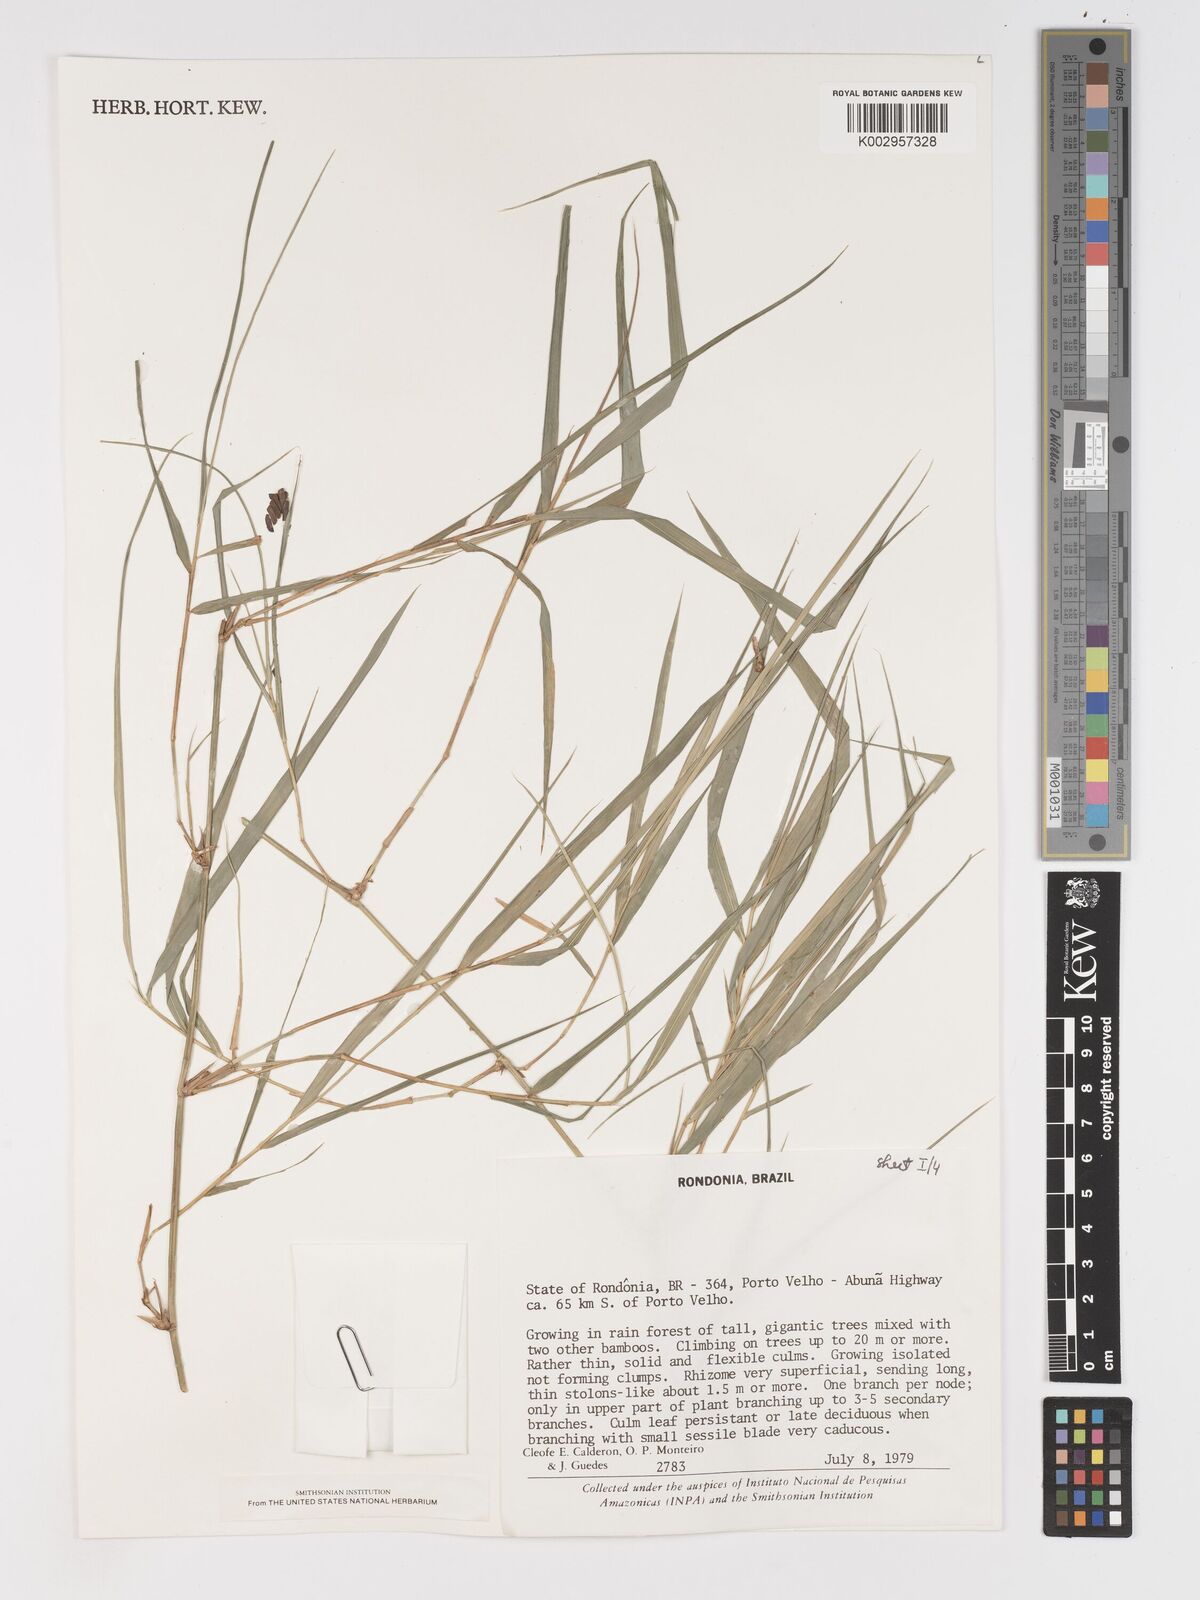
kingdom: Plantae
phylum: Tracheophyta
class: Liliopsida
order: Poales
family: Poaceae
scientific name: Poaceae
